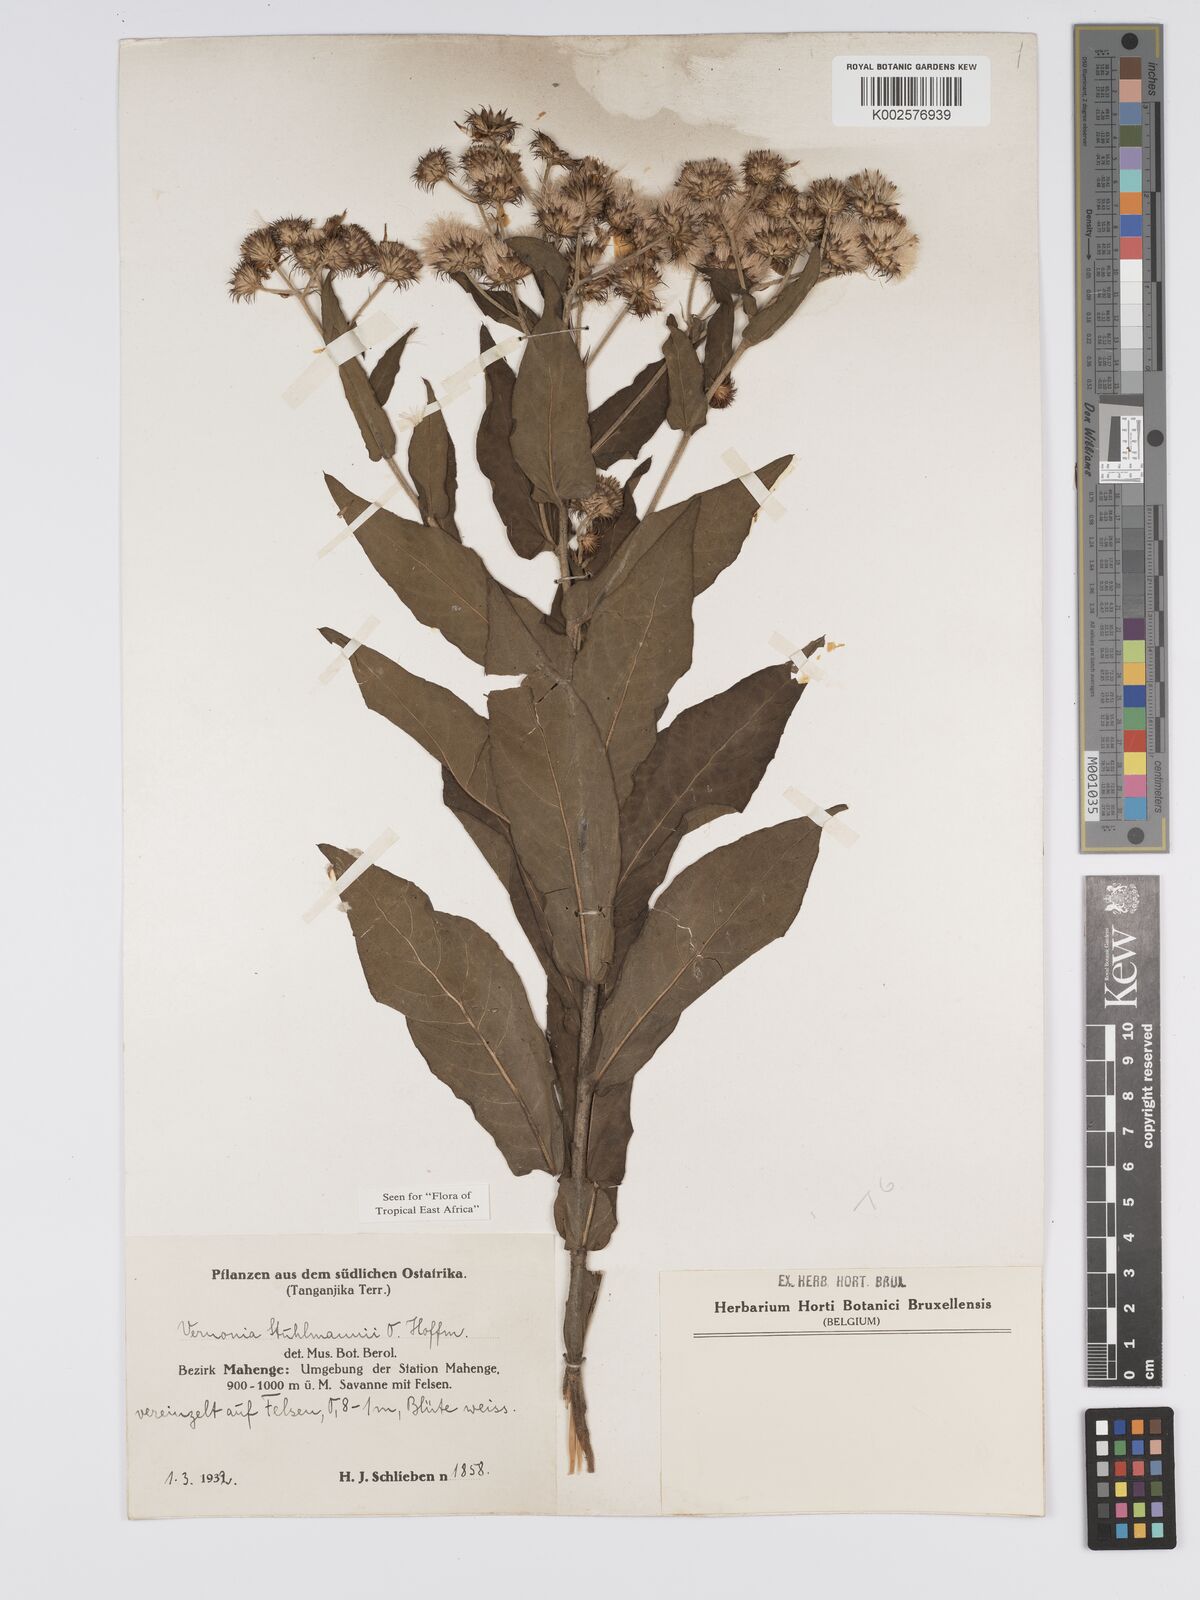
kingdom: Plantae
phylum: Tracheophyta
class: Magnoliopsida
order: Asterales
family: Asteraceae
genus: Vernonia
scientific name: Vernonia stuhlmannii
